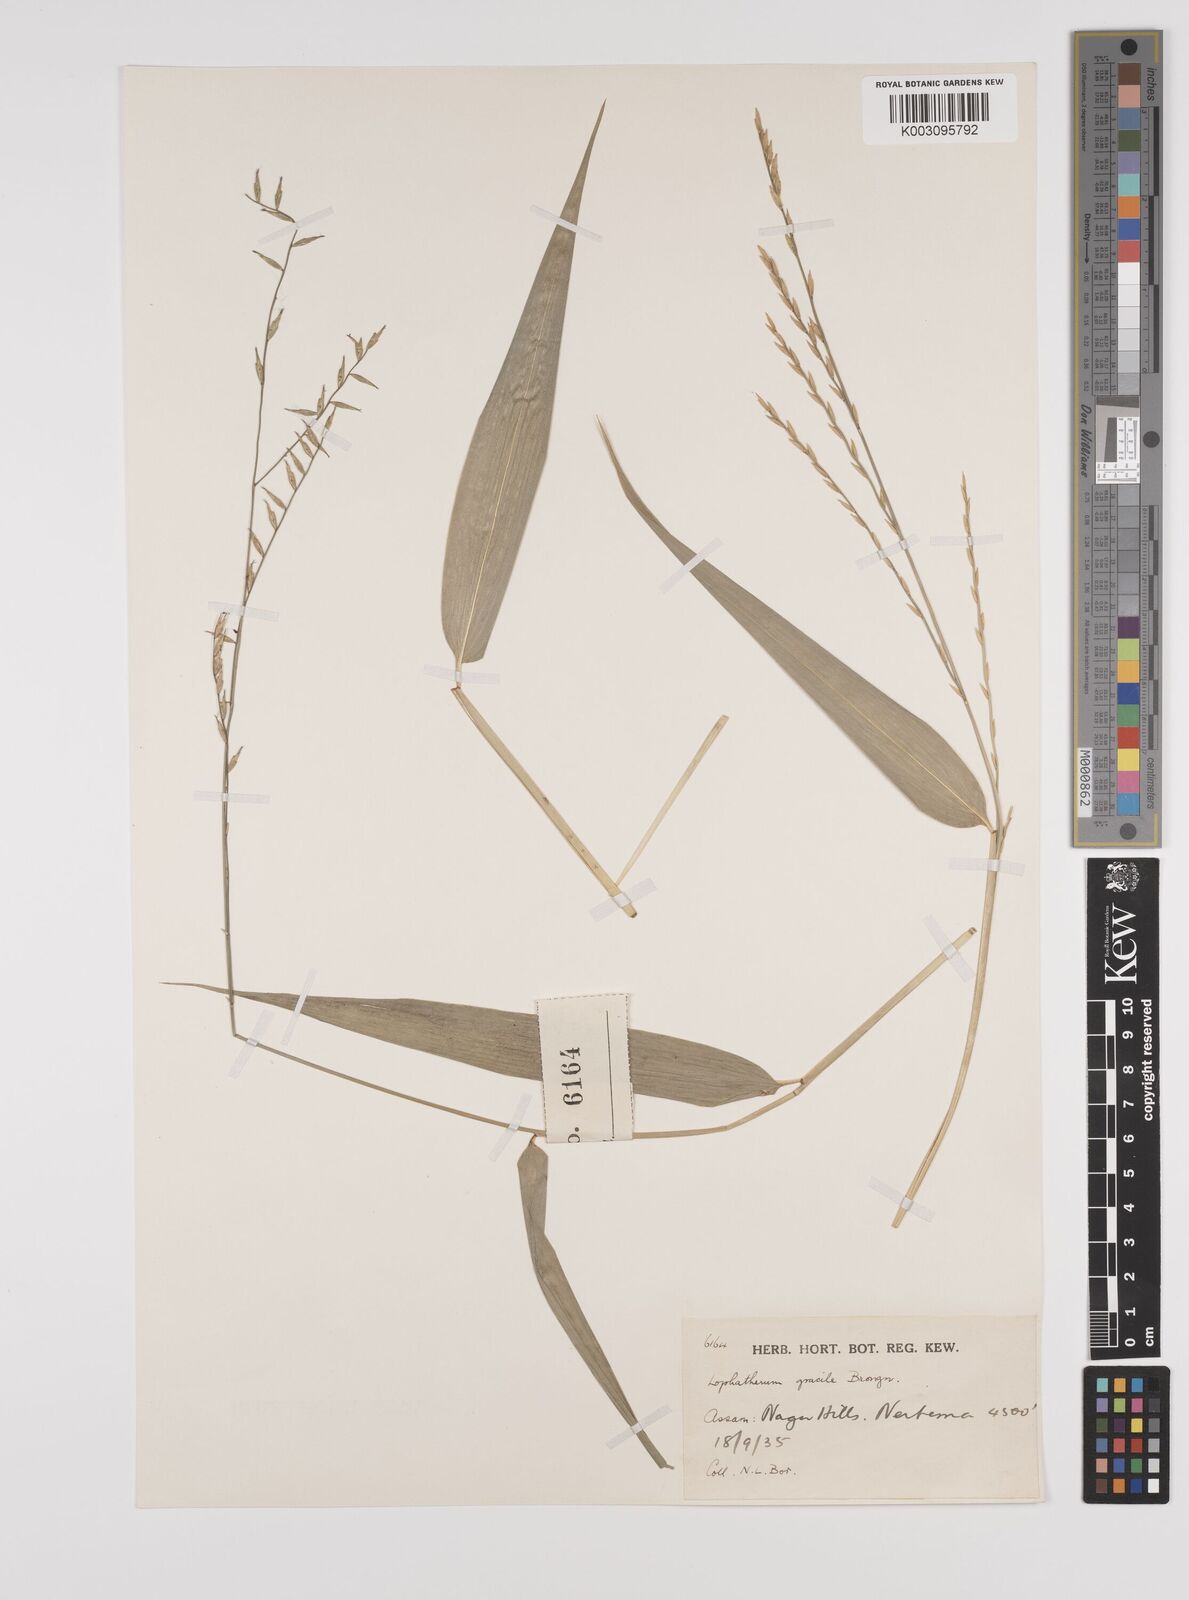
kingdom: Plantae
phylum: Tracheophyta
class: Liliopsida
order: Poales
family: Poaceae
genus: Lophatherum
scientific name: Lophatherum gracile
